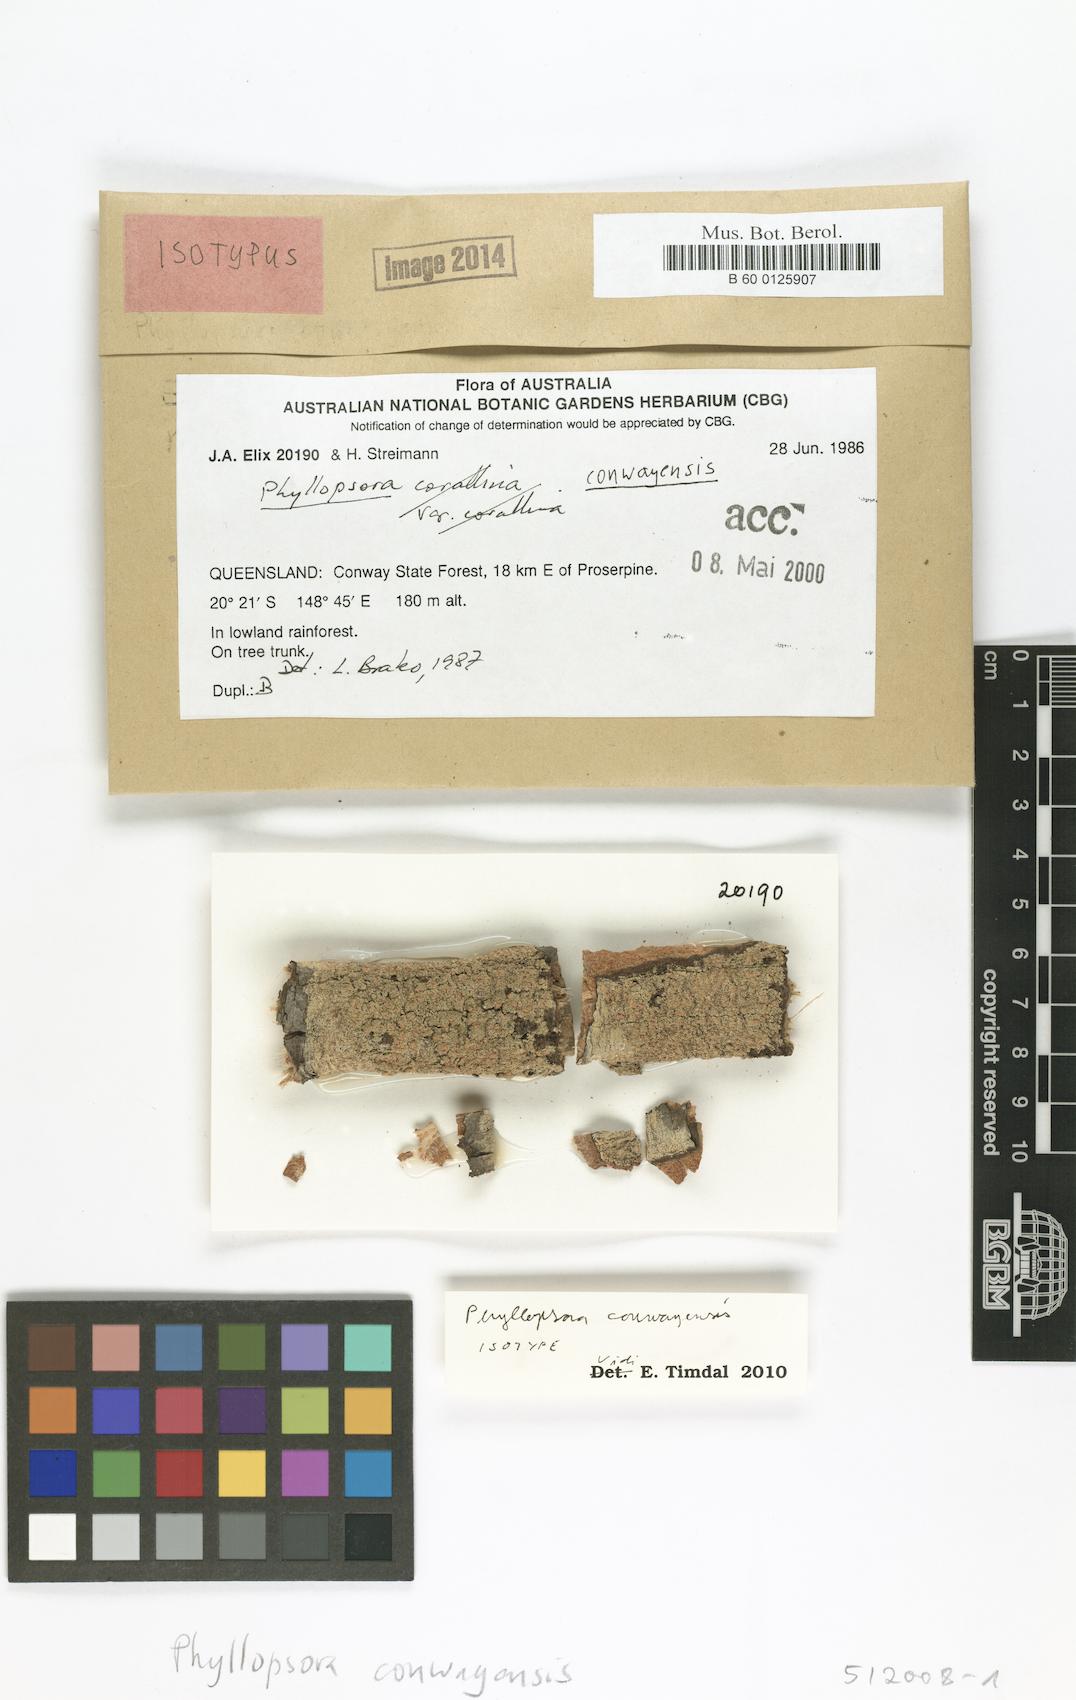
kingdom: Fungi
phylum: Ascomycota
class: Lecanoromycetes
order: Lecanorales
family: Ramalinaceae
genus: Phyllopsora
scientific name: Phyllopsora conwayensis
